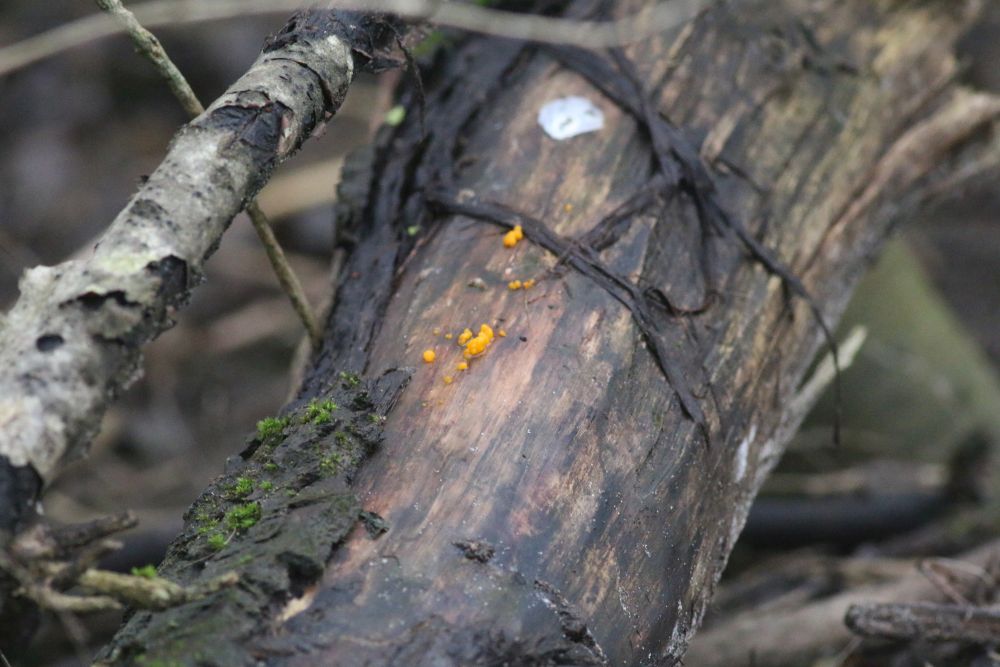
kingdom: Fungi
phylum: Basidiomycota
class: Dacrymycetes
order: Dacrymycetales
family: Dacrymycetaceae
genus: Dacrymyces
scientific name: Dacrymyces stillatus
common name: almindelig tåresvamp
